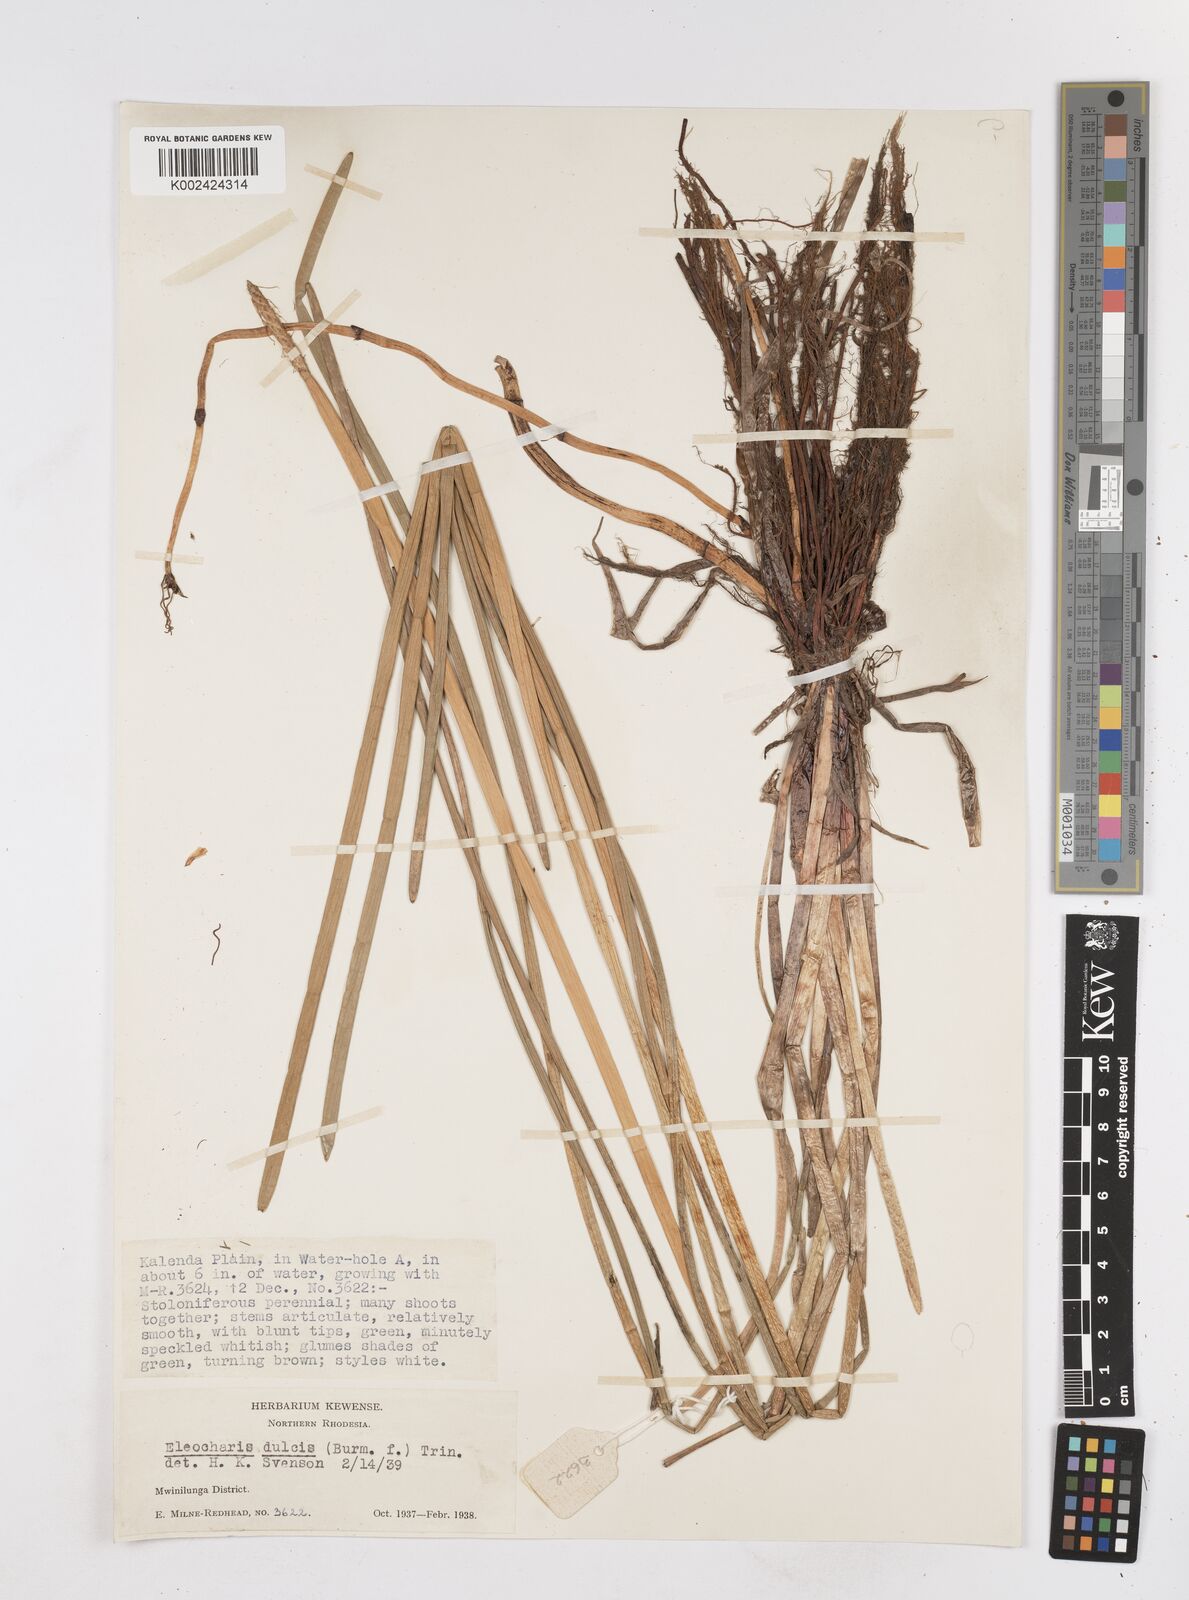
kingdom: Plantae
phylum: Tracheophyta
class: Liliopsida
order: Poales
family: Cyperaceae
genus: Eleocharis
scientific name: Eleocharis dulcis
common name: Chinese water chestnut
